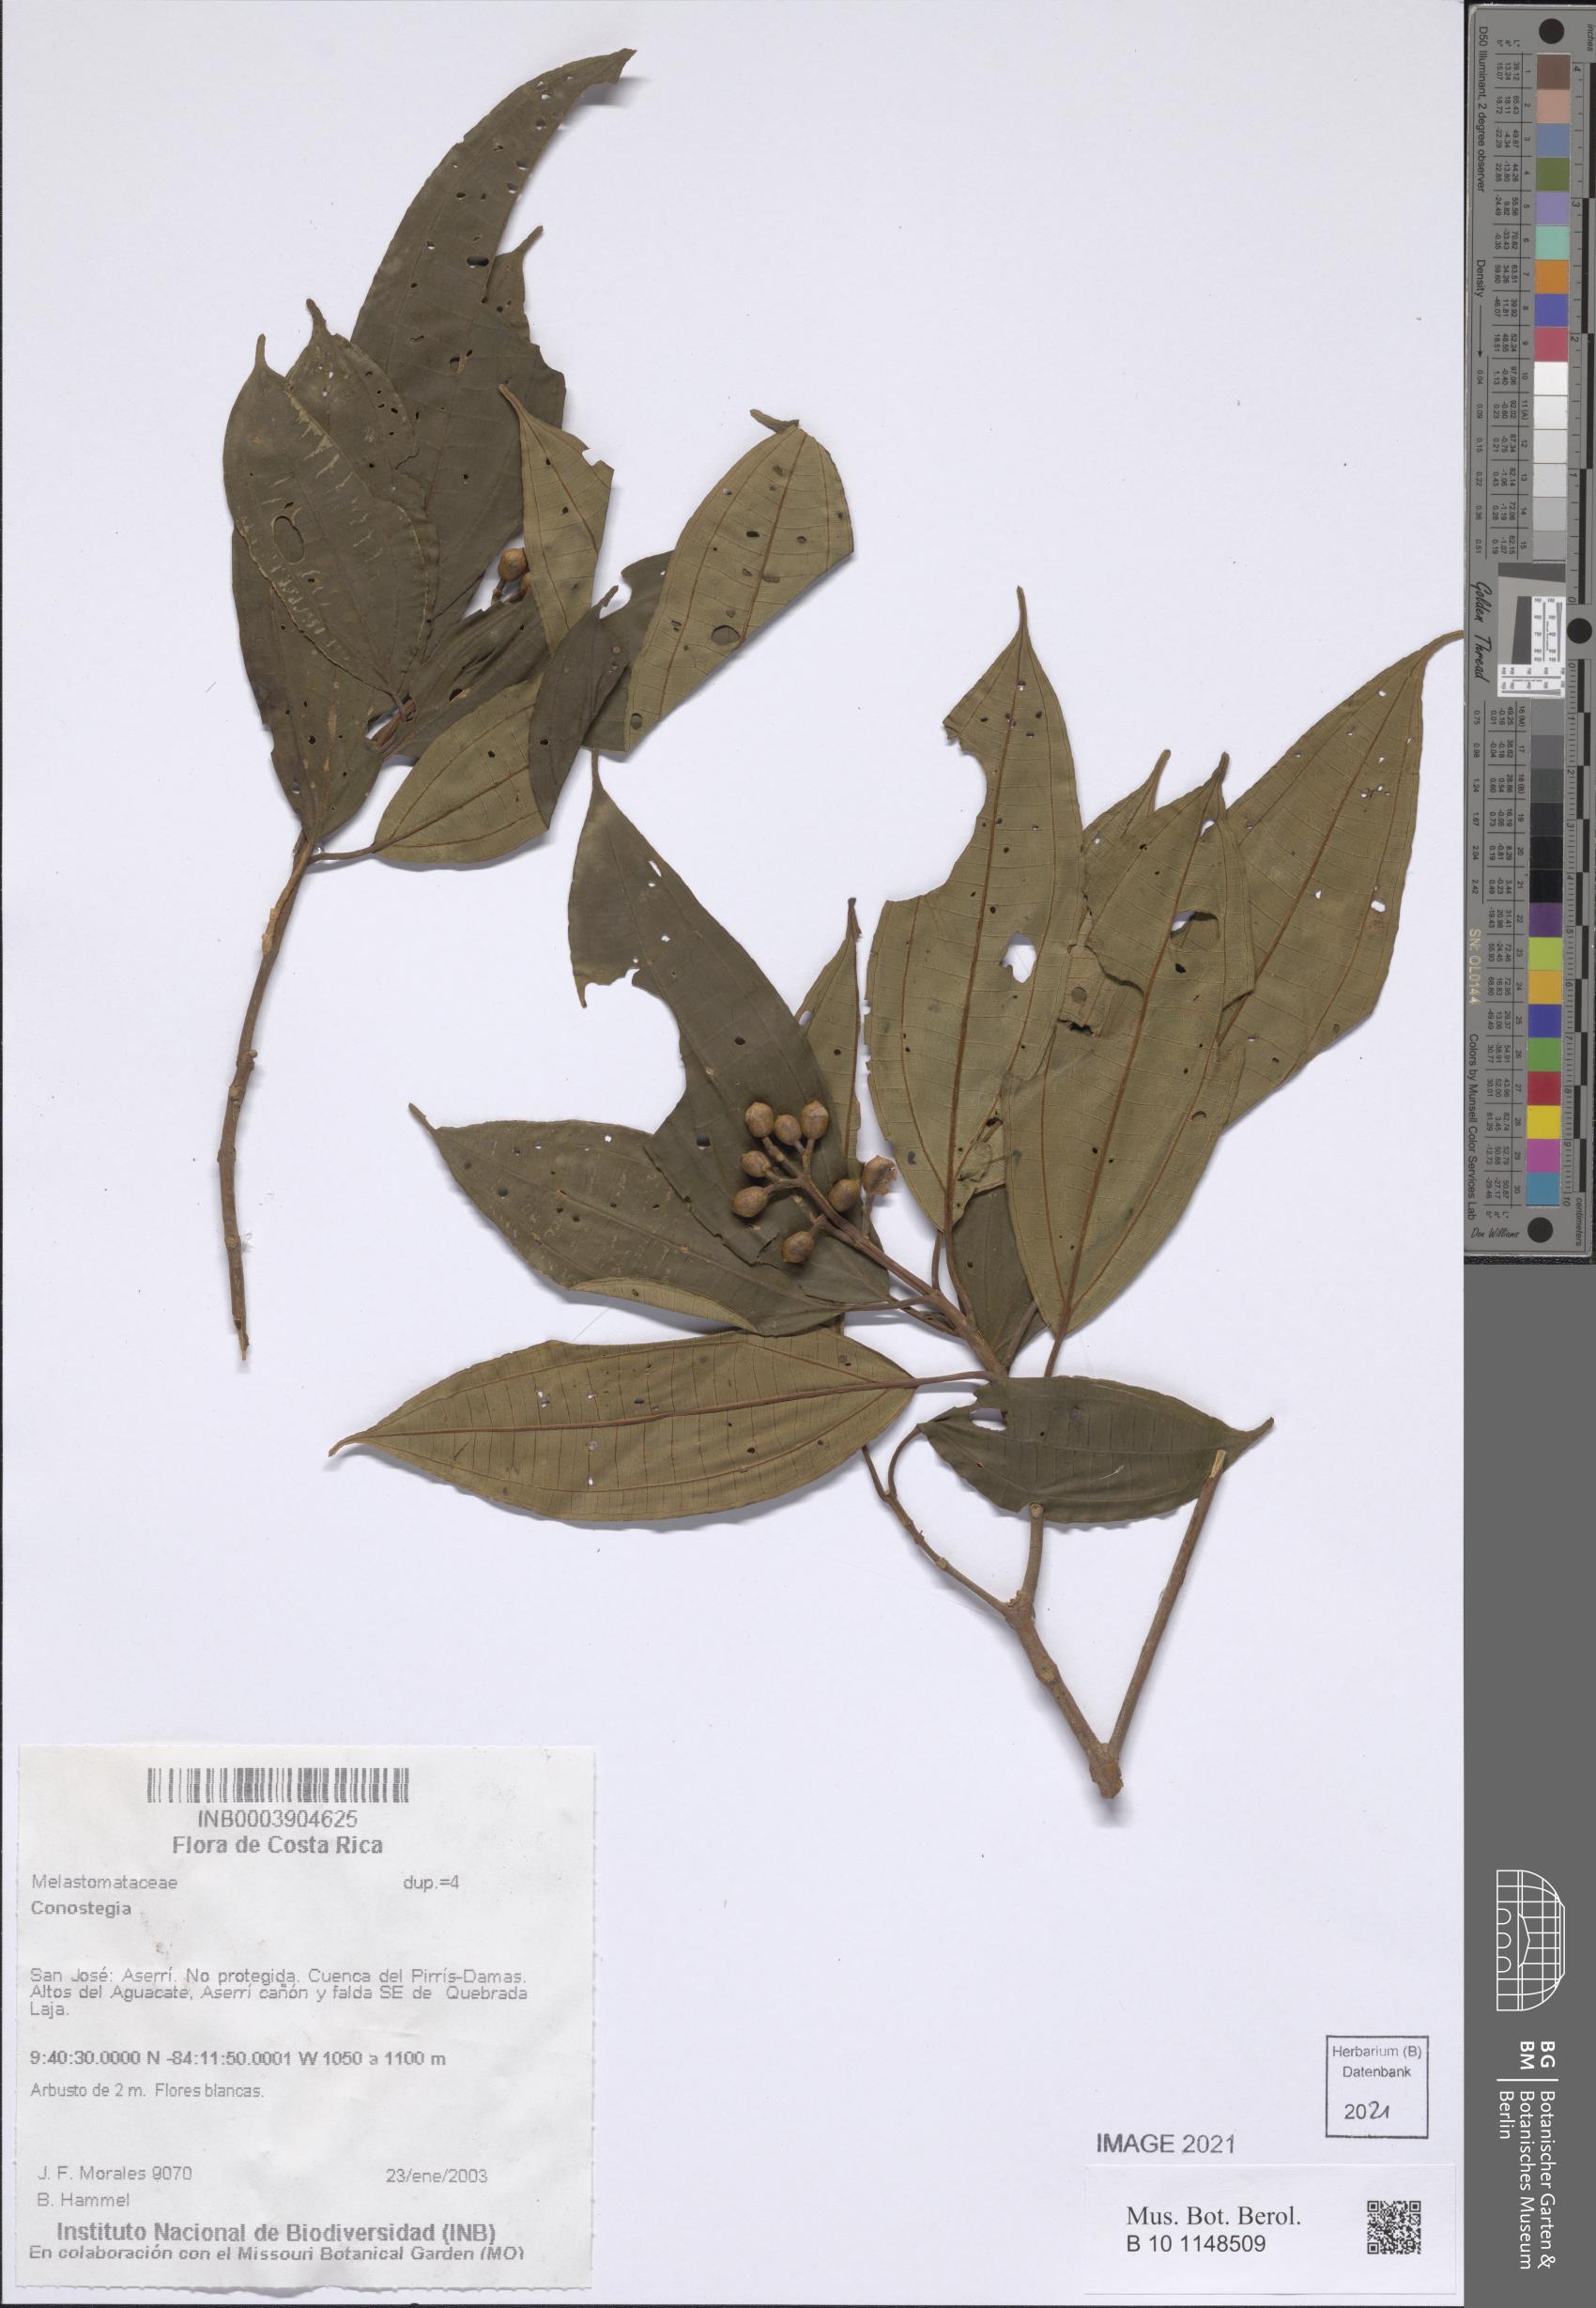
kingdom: Plantae
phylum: Tracheophyta
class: Magnoliopsida
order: Myrtales
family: Melastomataceae
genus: Miconia
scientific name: Miconia
